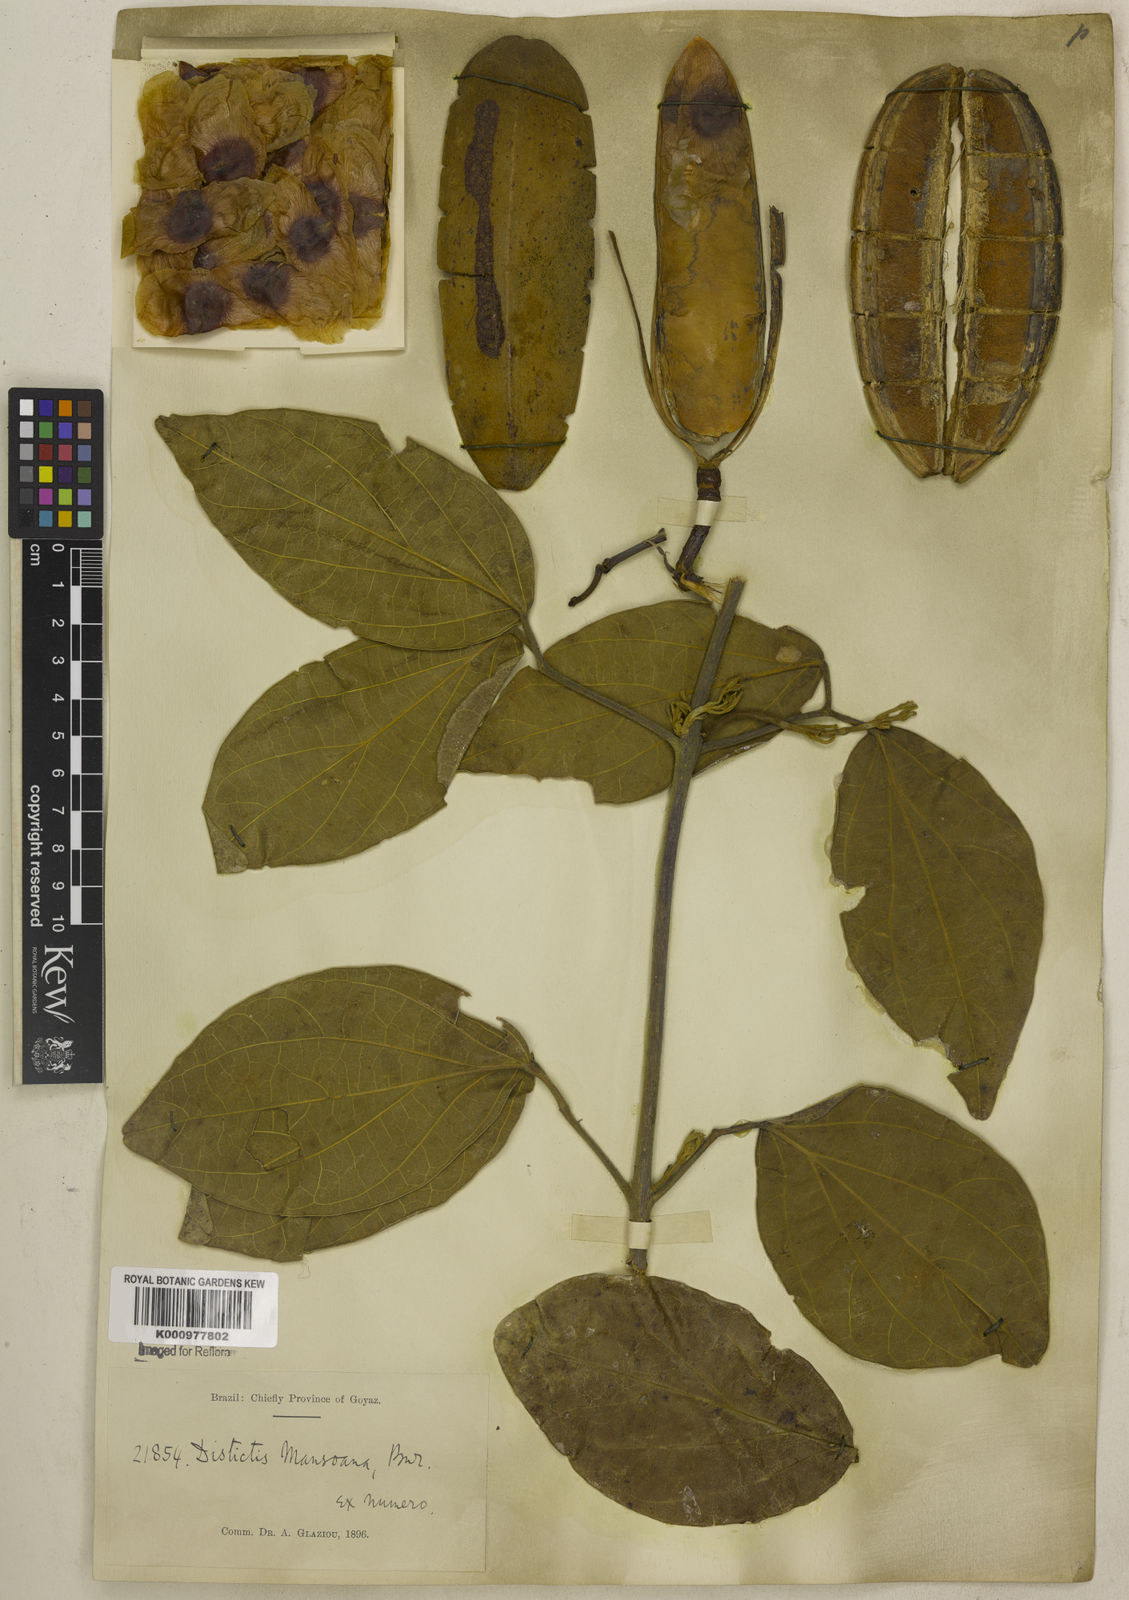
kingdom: Plantae
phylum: Tracheophyta
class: Magnoliopsida
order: Lamiales
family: Bignoniaceae
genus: Amphilophium
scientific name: Amphilophium mansoanum
